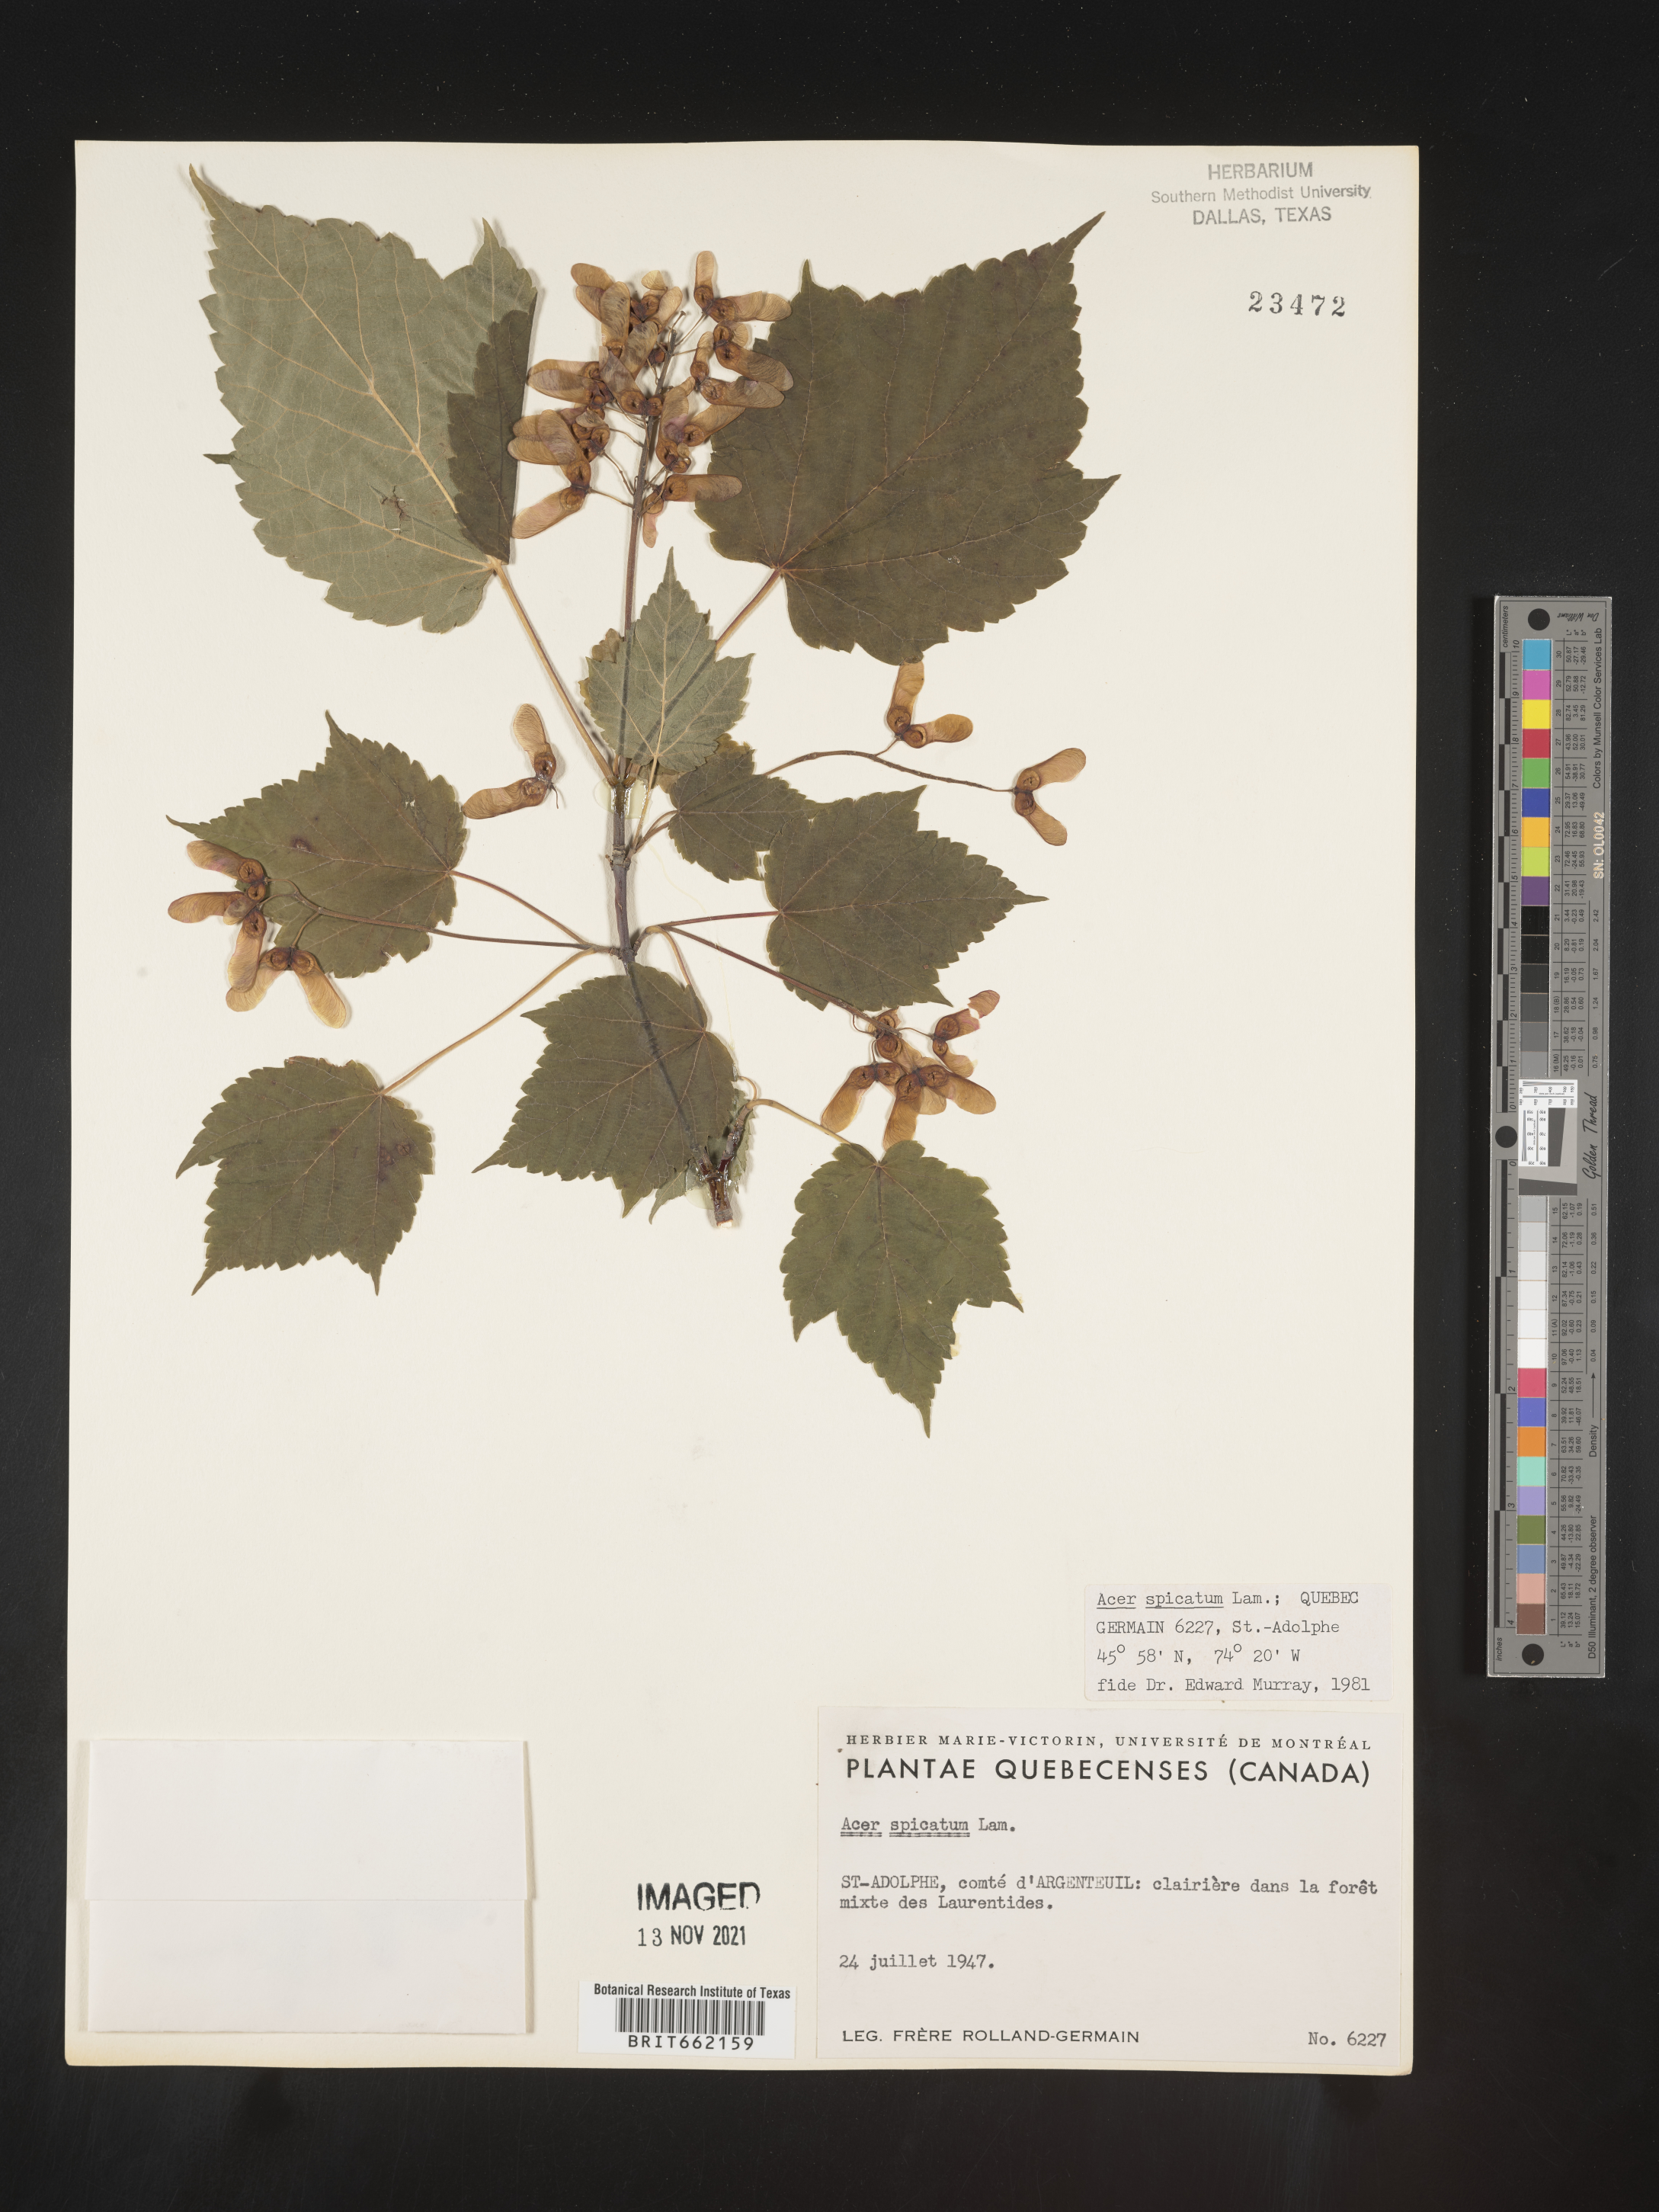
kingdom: Plantae
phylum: Tracheophyta
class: Magnoliopsida
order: Sapindales
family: Sapindaceae
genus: Acer
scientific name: Acer spicatum
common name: Mountain maple
